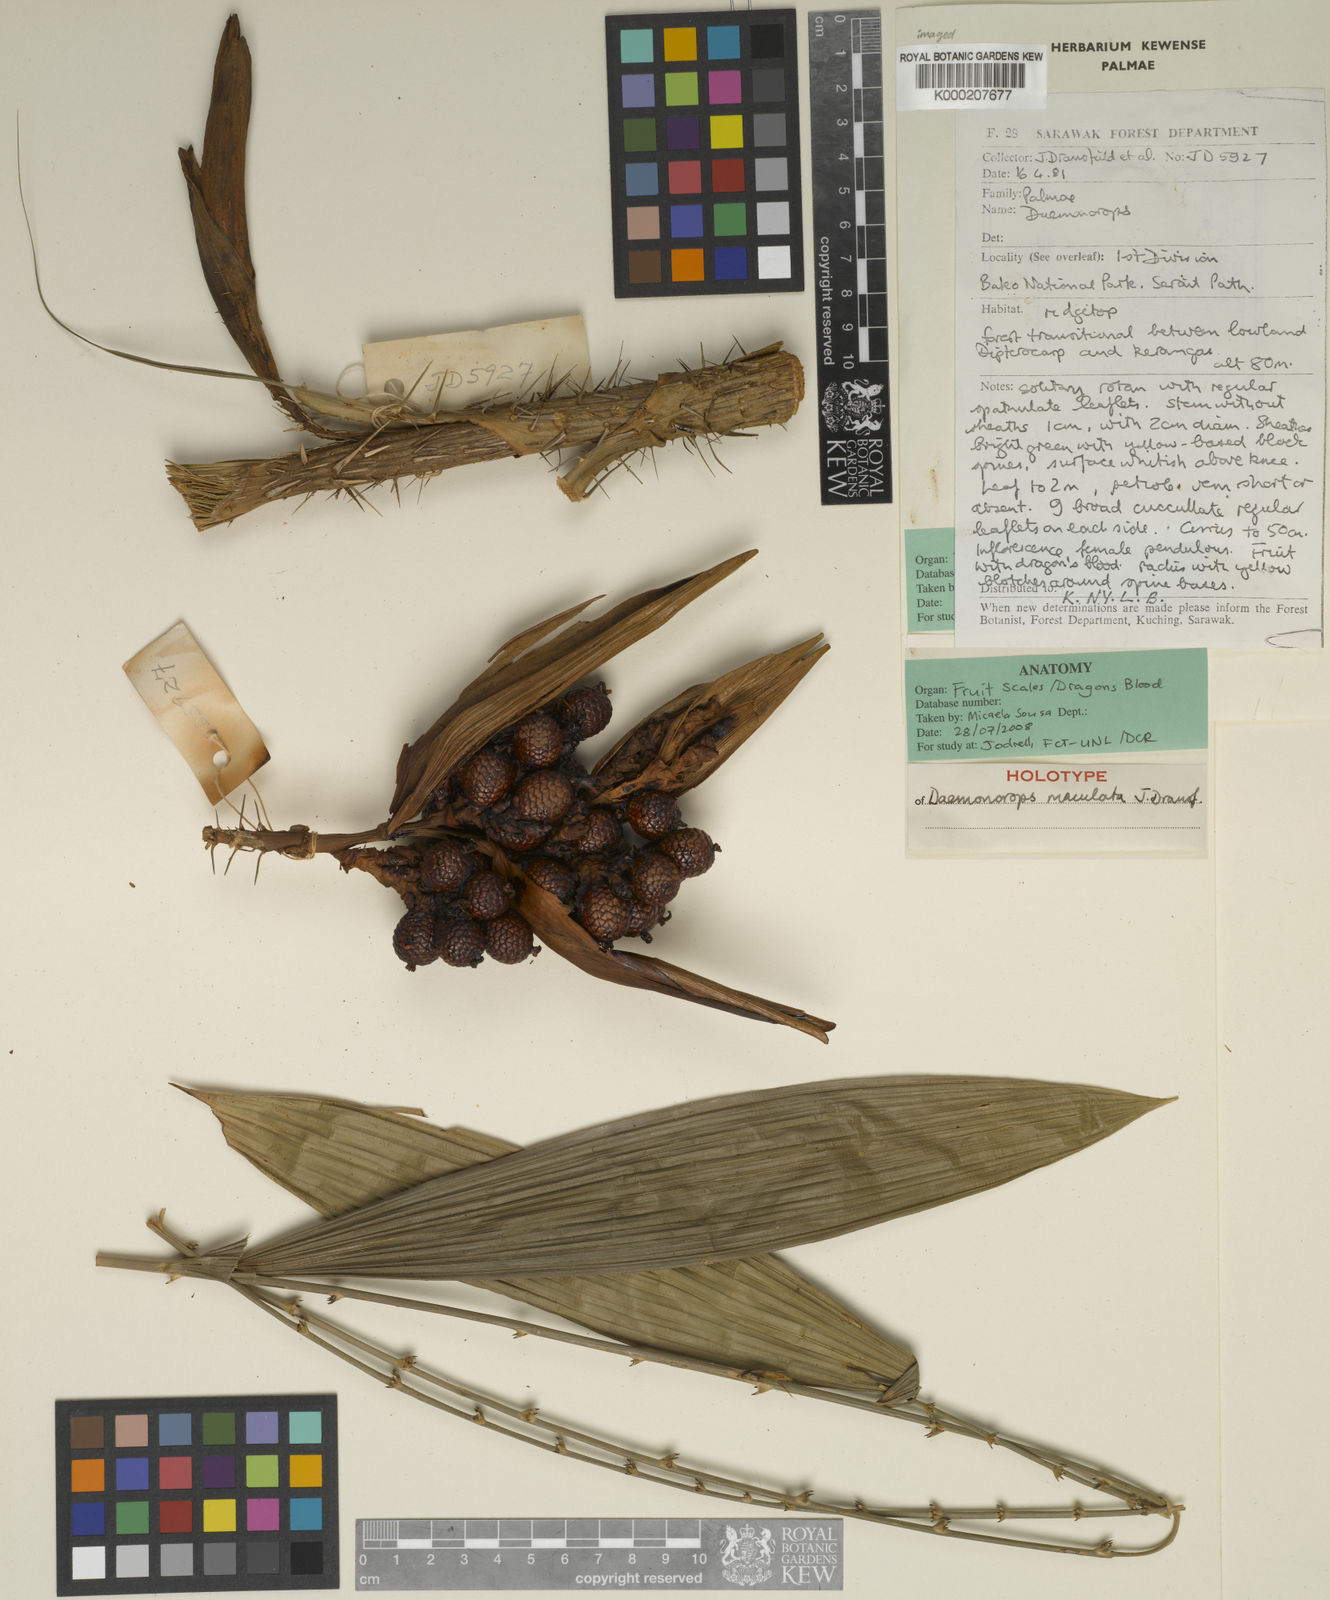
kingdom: Plantae
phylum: Tracheophyta
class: Liliopsida
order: Arecales
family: Arecaceae
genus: Calamus
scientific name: Calamus maculatus
